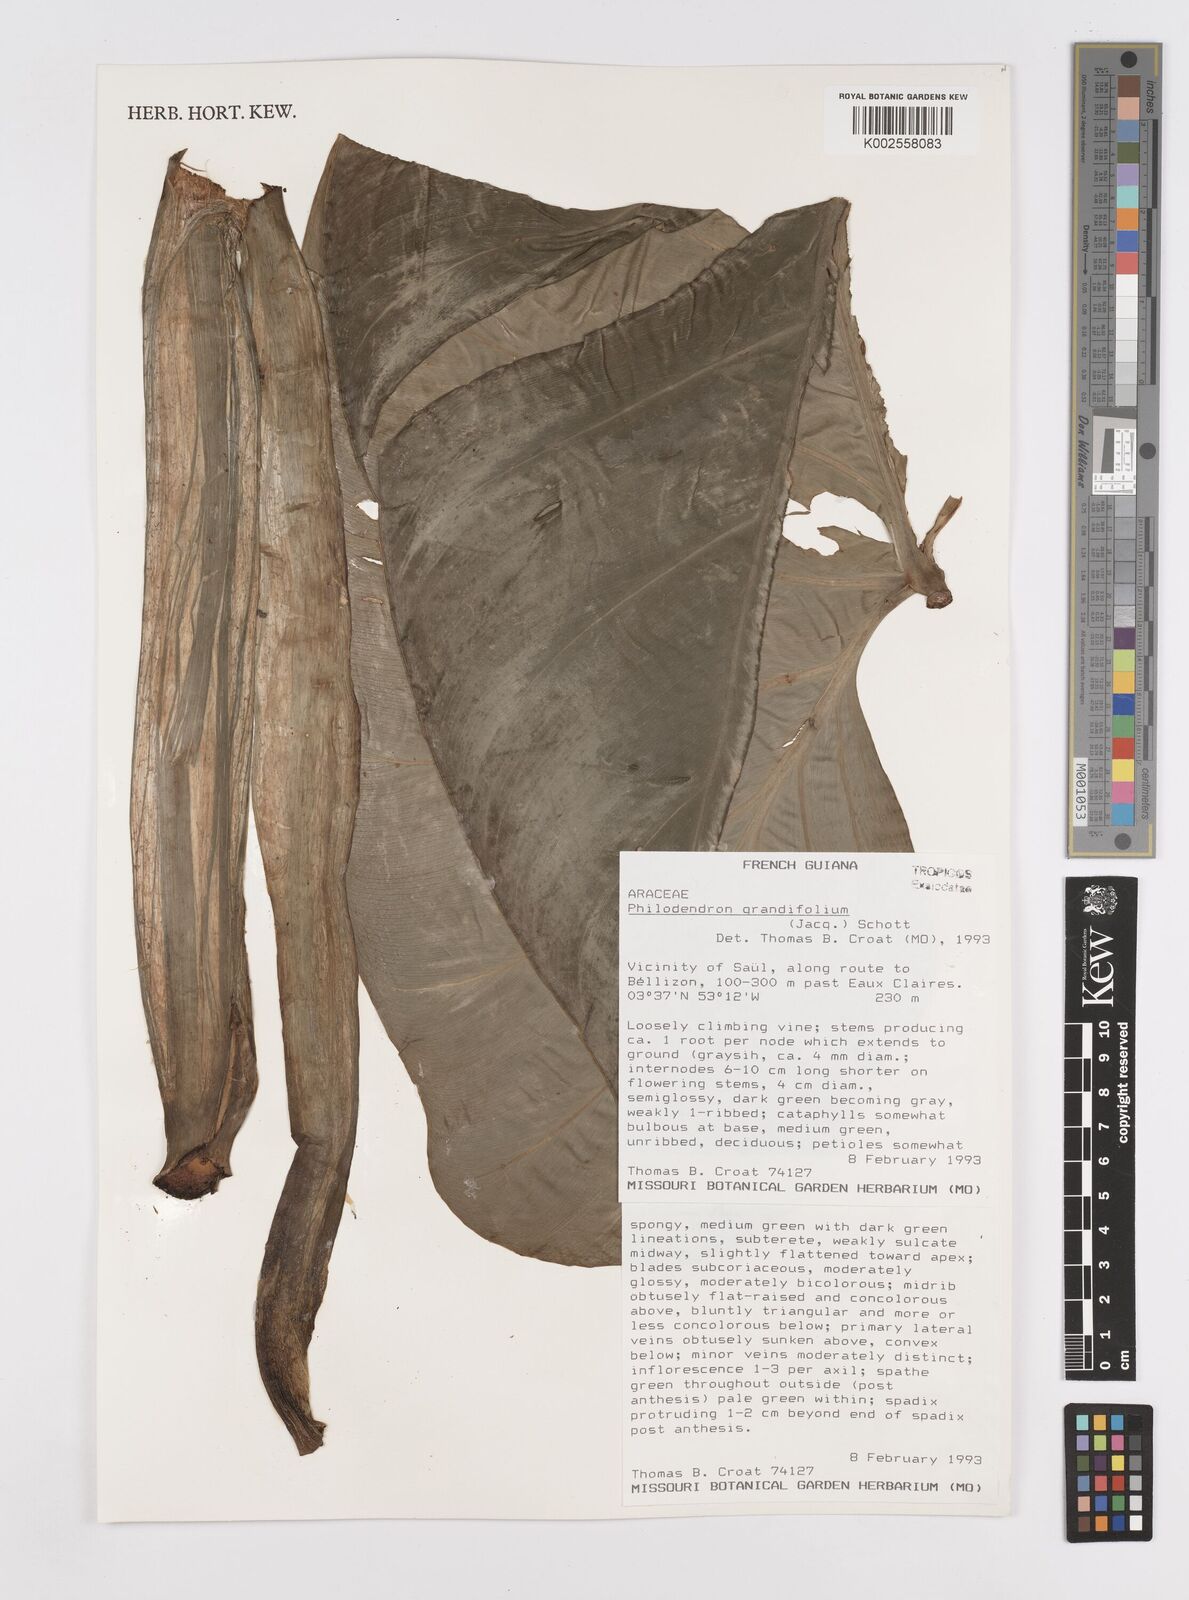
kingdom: Plantae
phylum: Tracheophyta
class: Liliopsida
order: Alismatales
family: Araceae
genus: Philodendron
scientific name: Philodendron grandifolium
